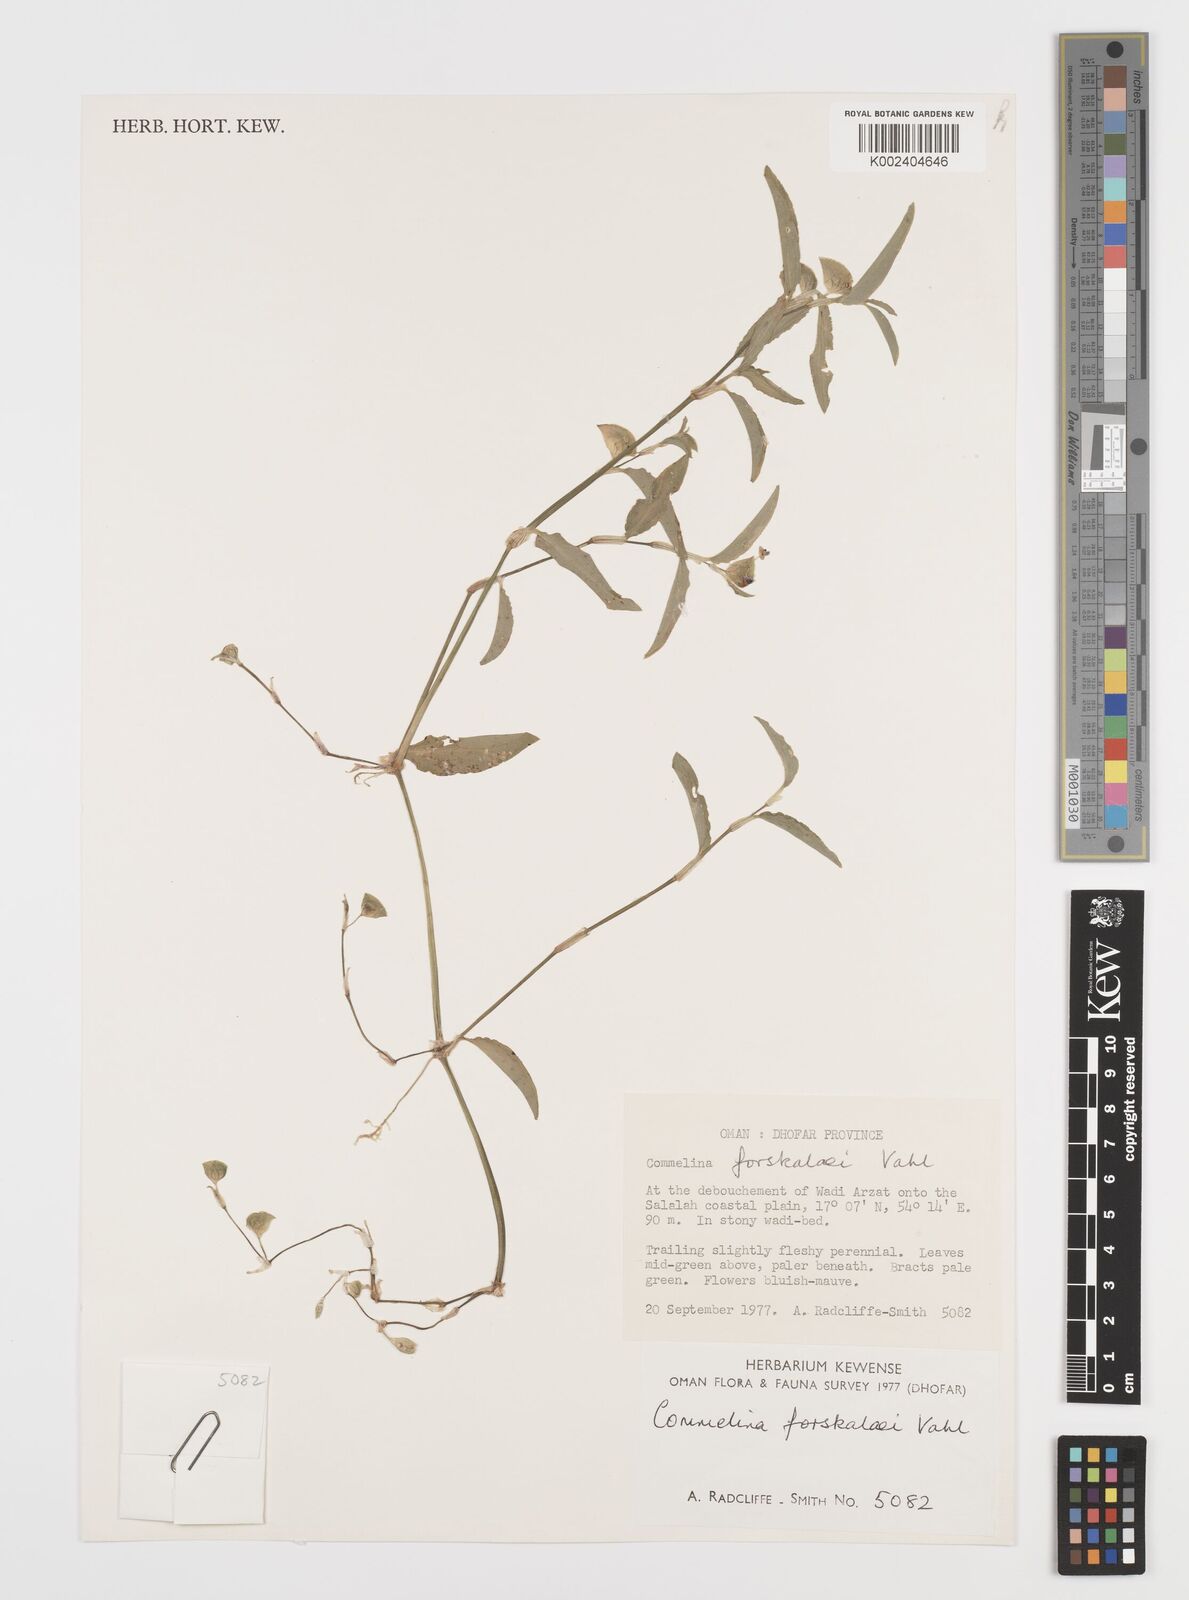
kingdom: Plantae
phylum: Tracheophyta
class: Liliopsida
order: Commelinales
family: Commelinaceae
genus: Commelina
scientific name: Commelina forskaolii
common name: Rat's ear
